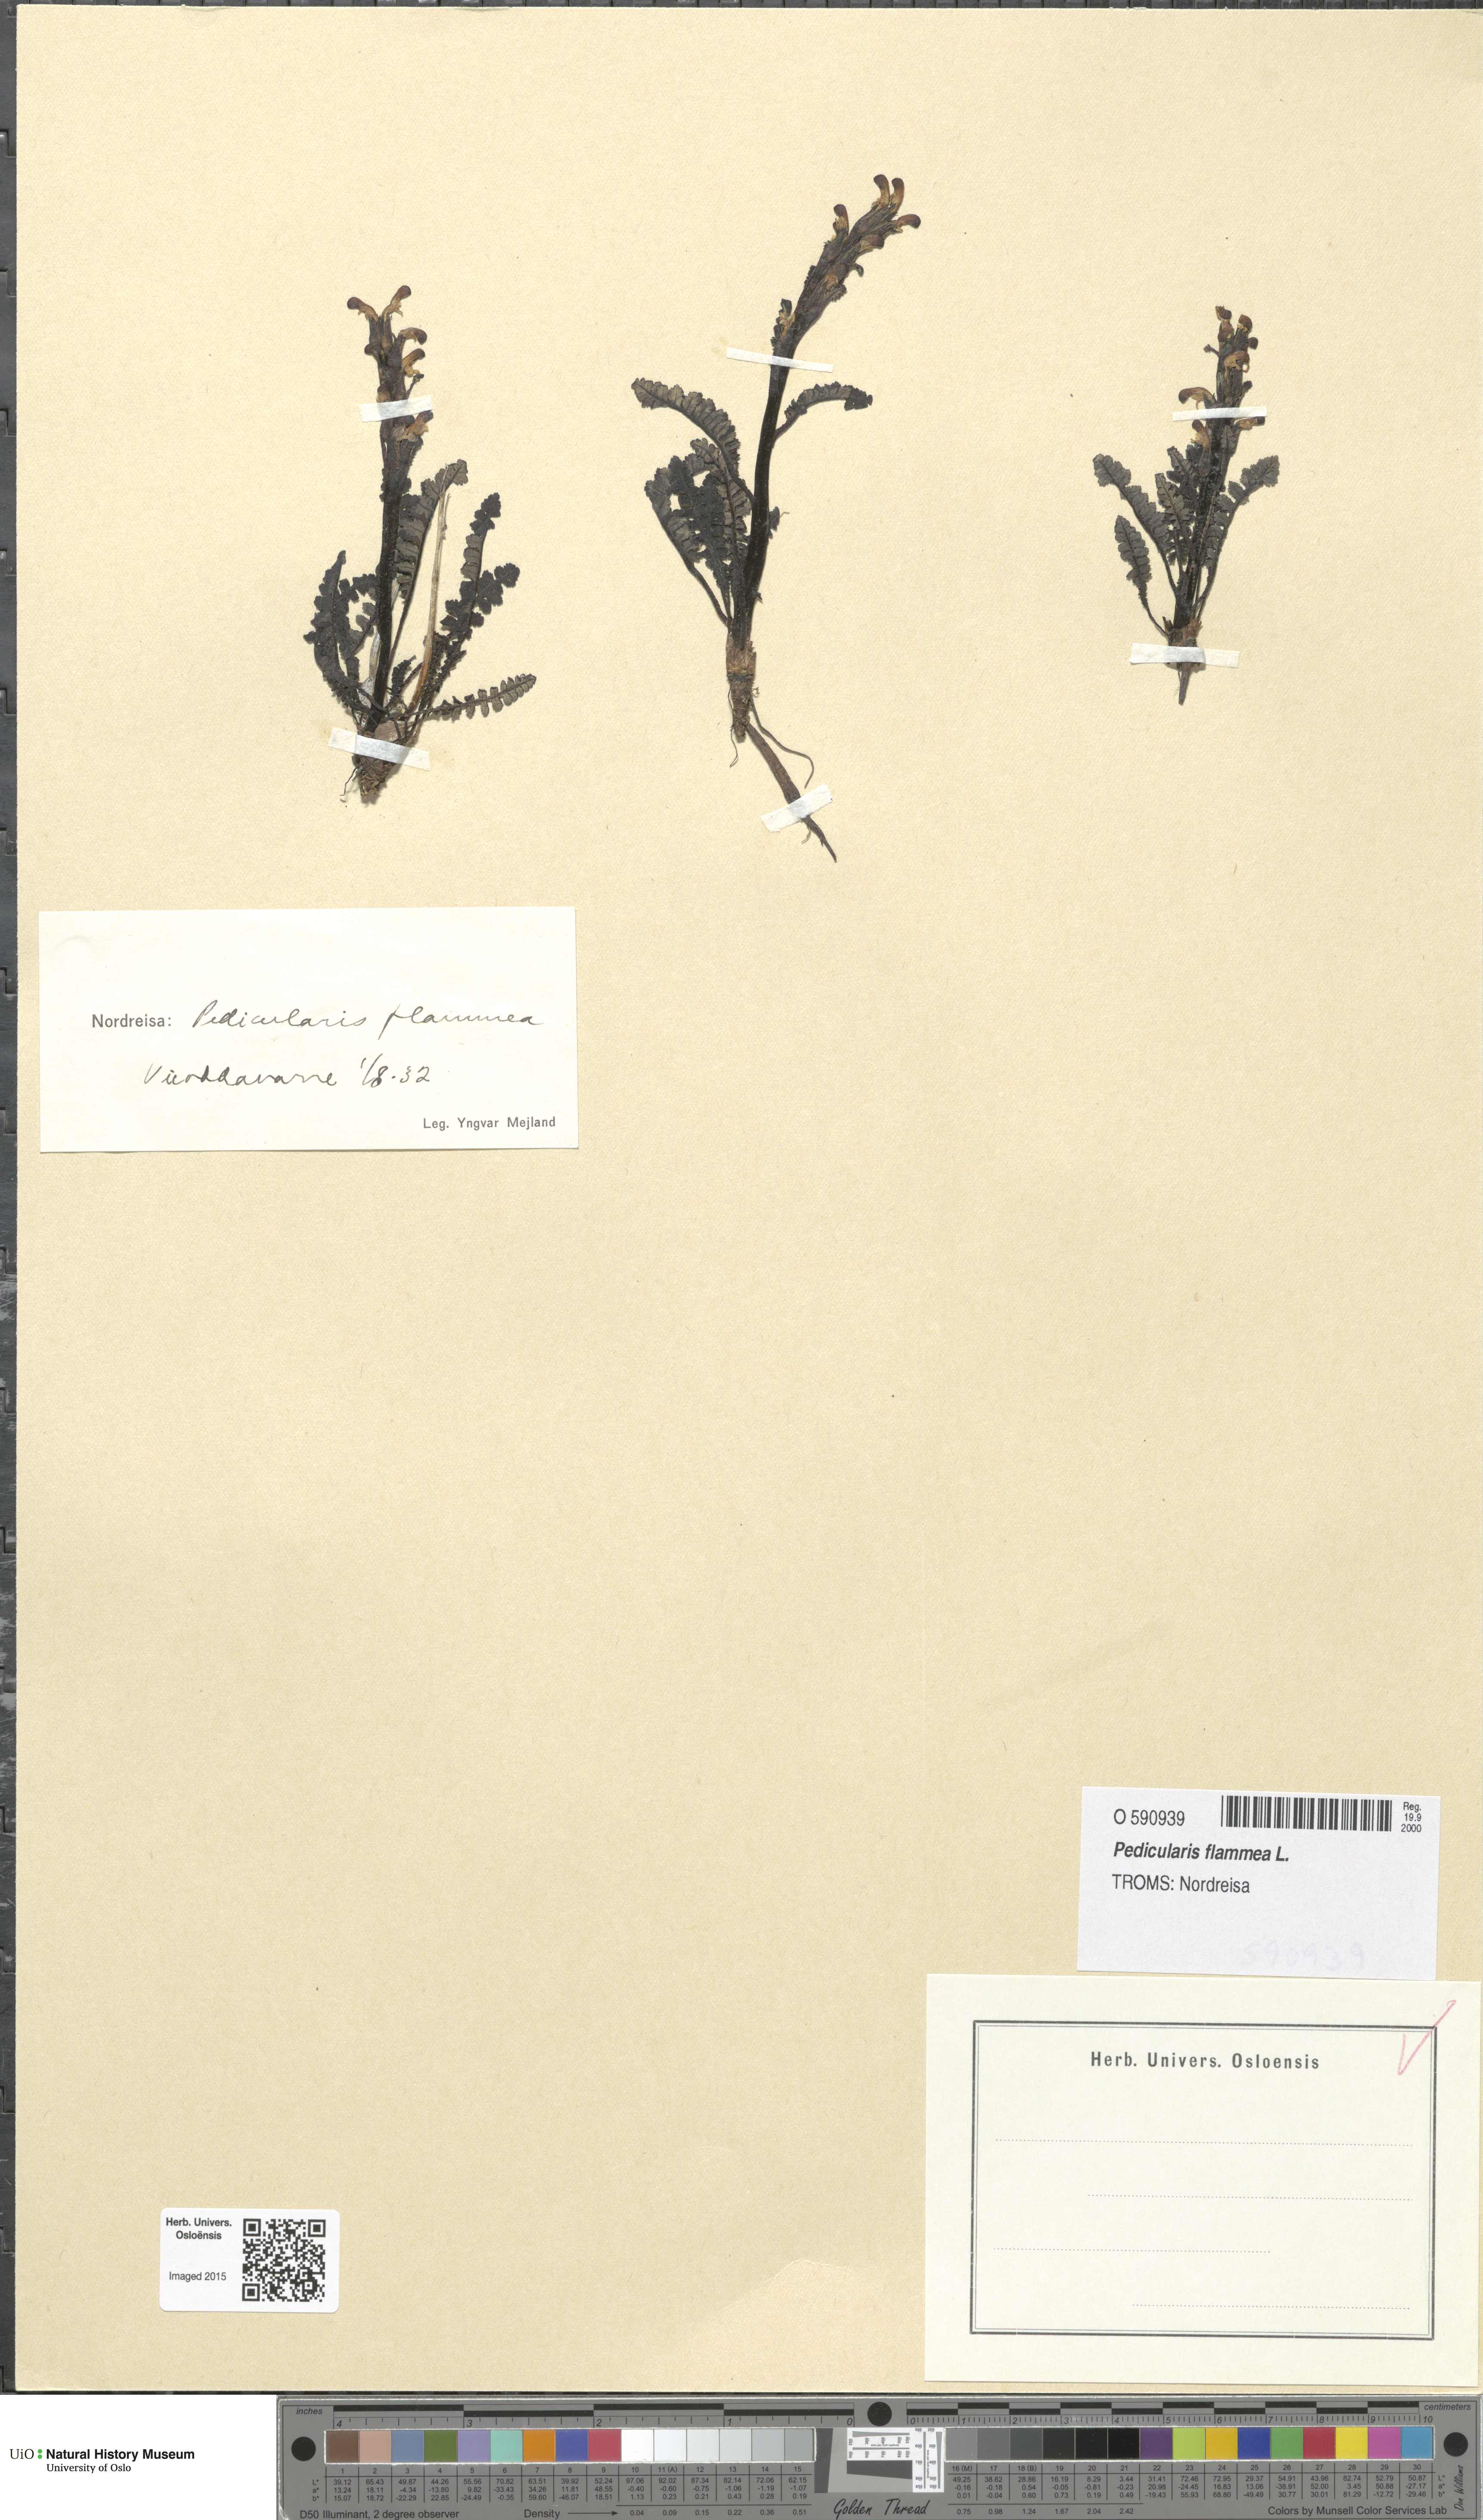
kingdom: Plantae
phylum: Tracheophyta
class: Magnoliopsida
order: Lamiales
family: Orobanchaceae
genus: Pedicularis
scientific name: Pedicularis flammea
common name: Flame-coloured lousewort
